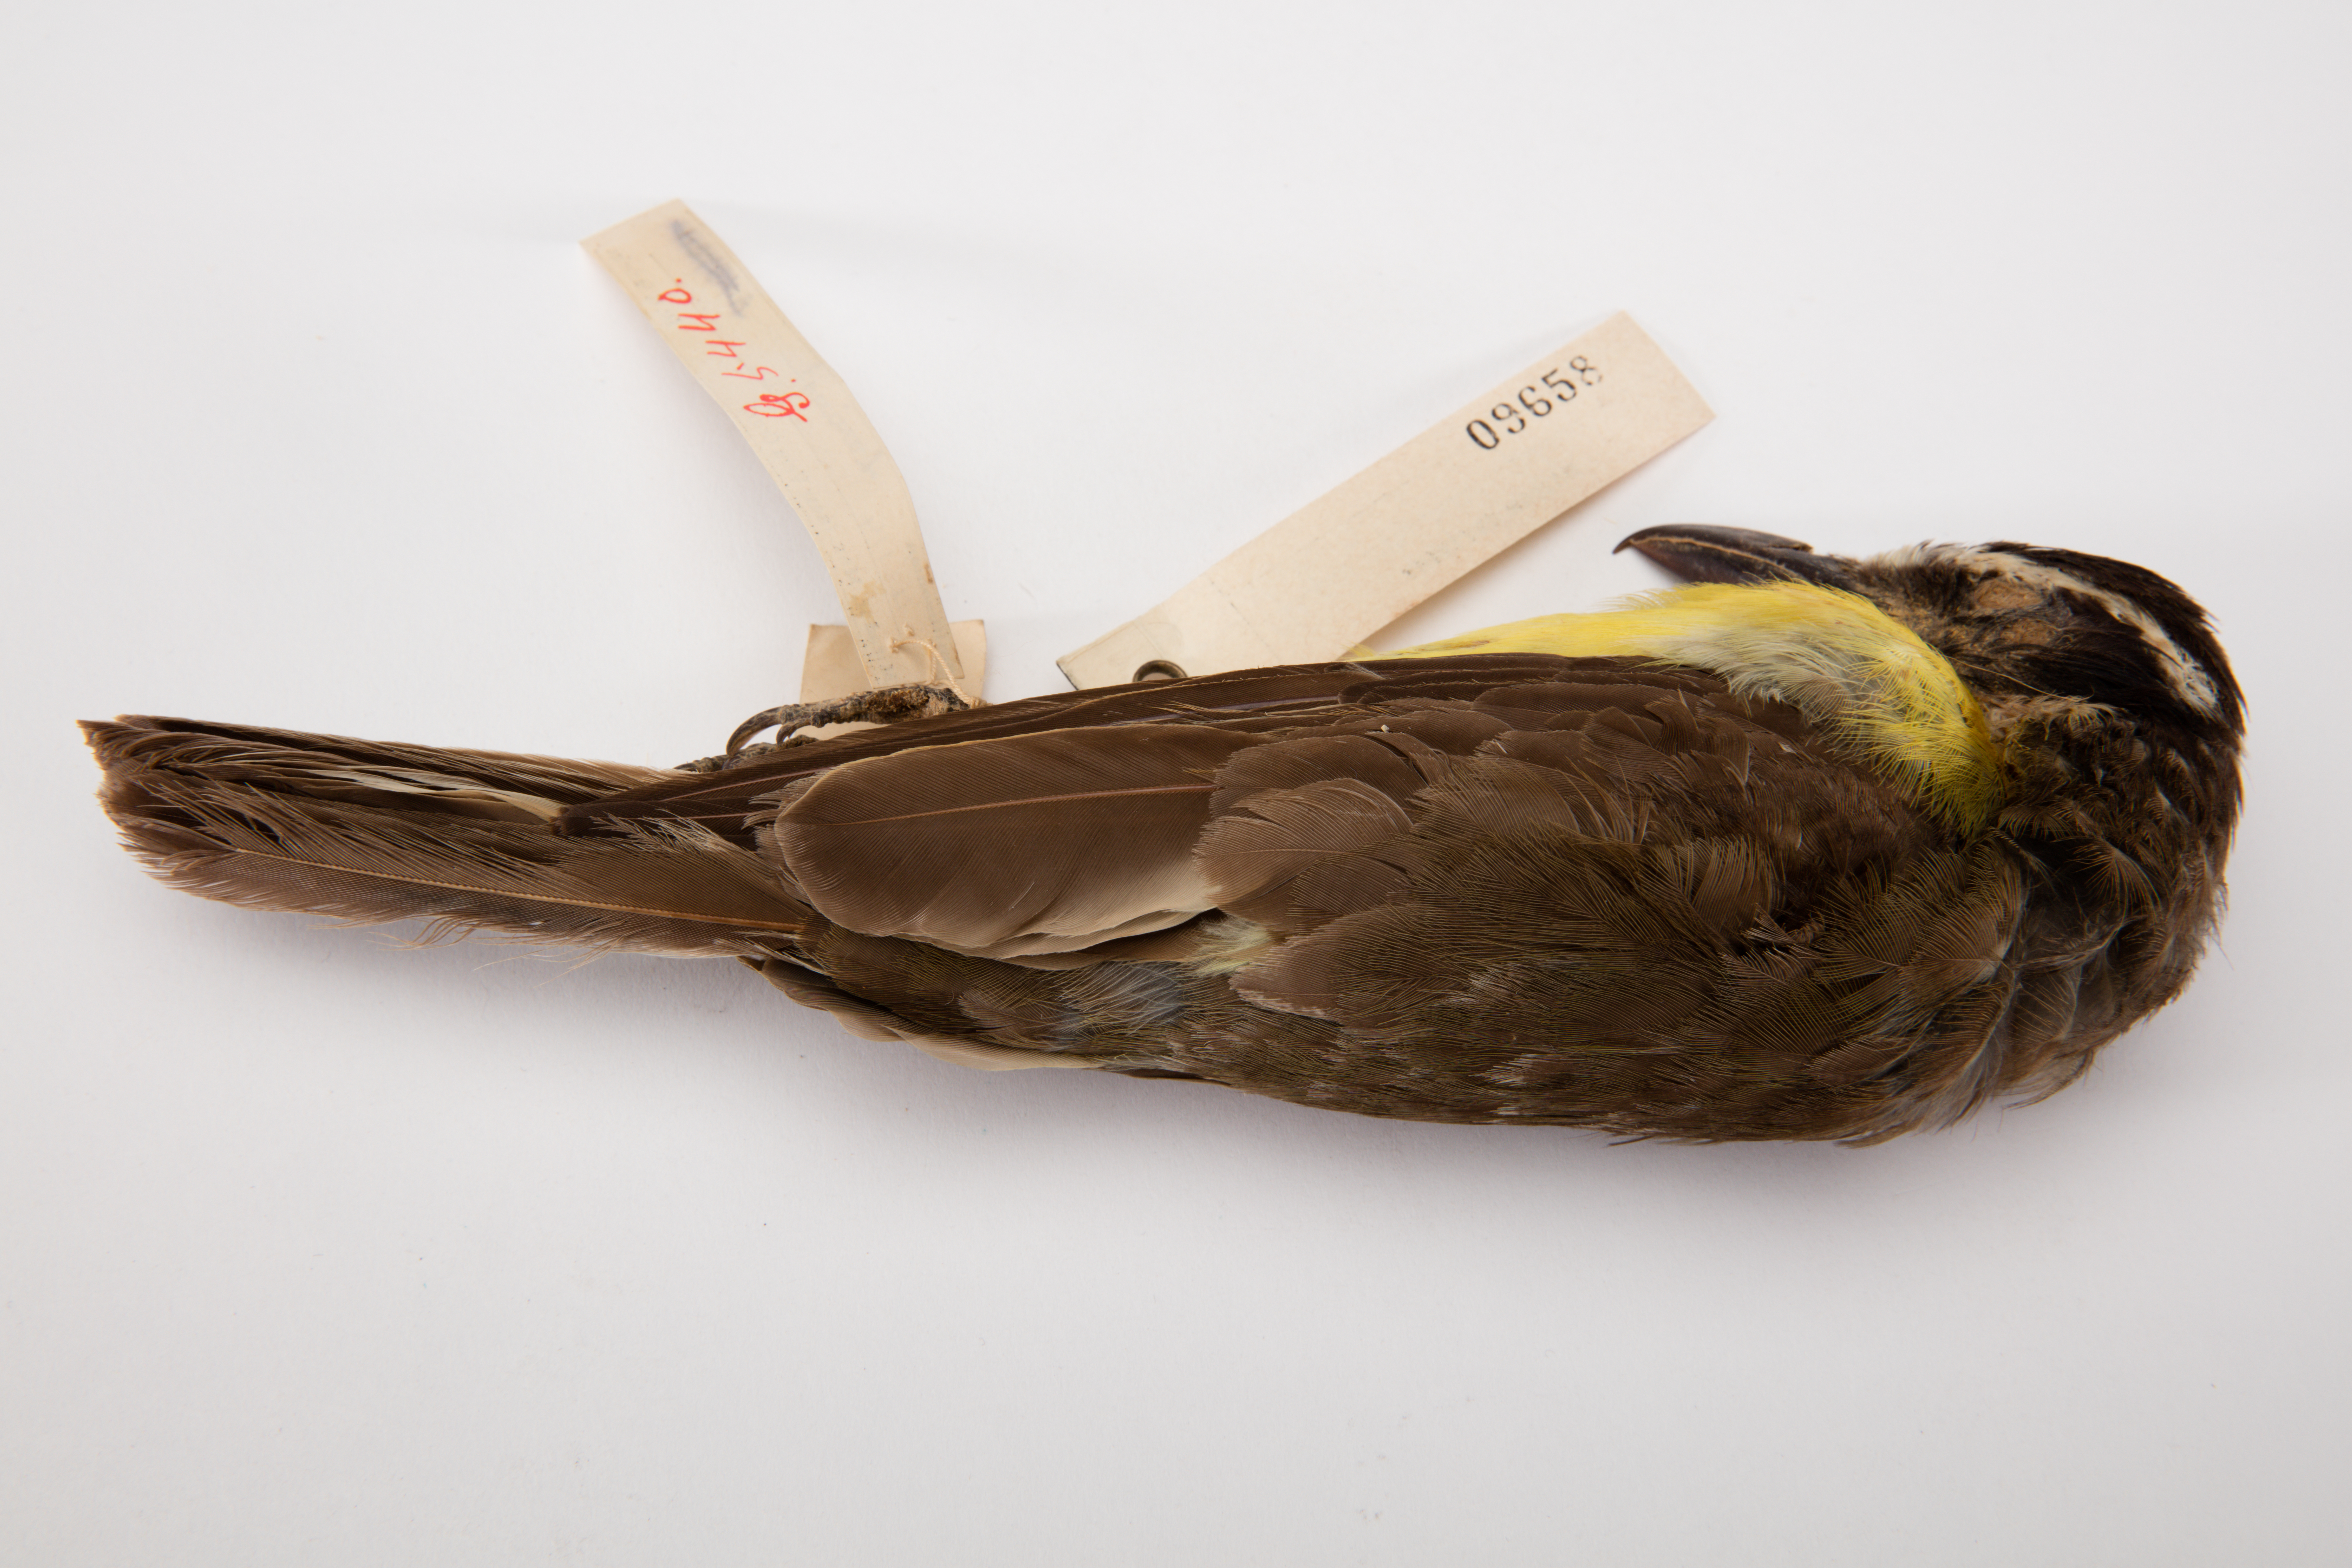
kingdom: Animalia
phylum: Chordata
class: Aves
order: Passeriformes
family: Tyrannidae
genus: Megarynchus
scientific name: Megarynchus pitangua
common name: Boat-billed flycatcher
